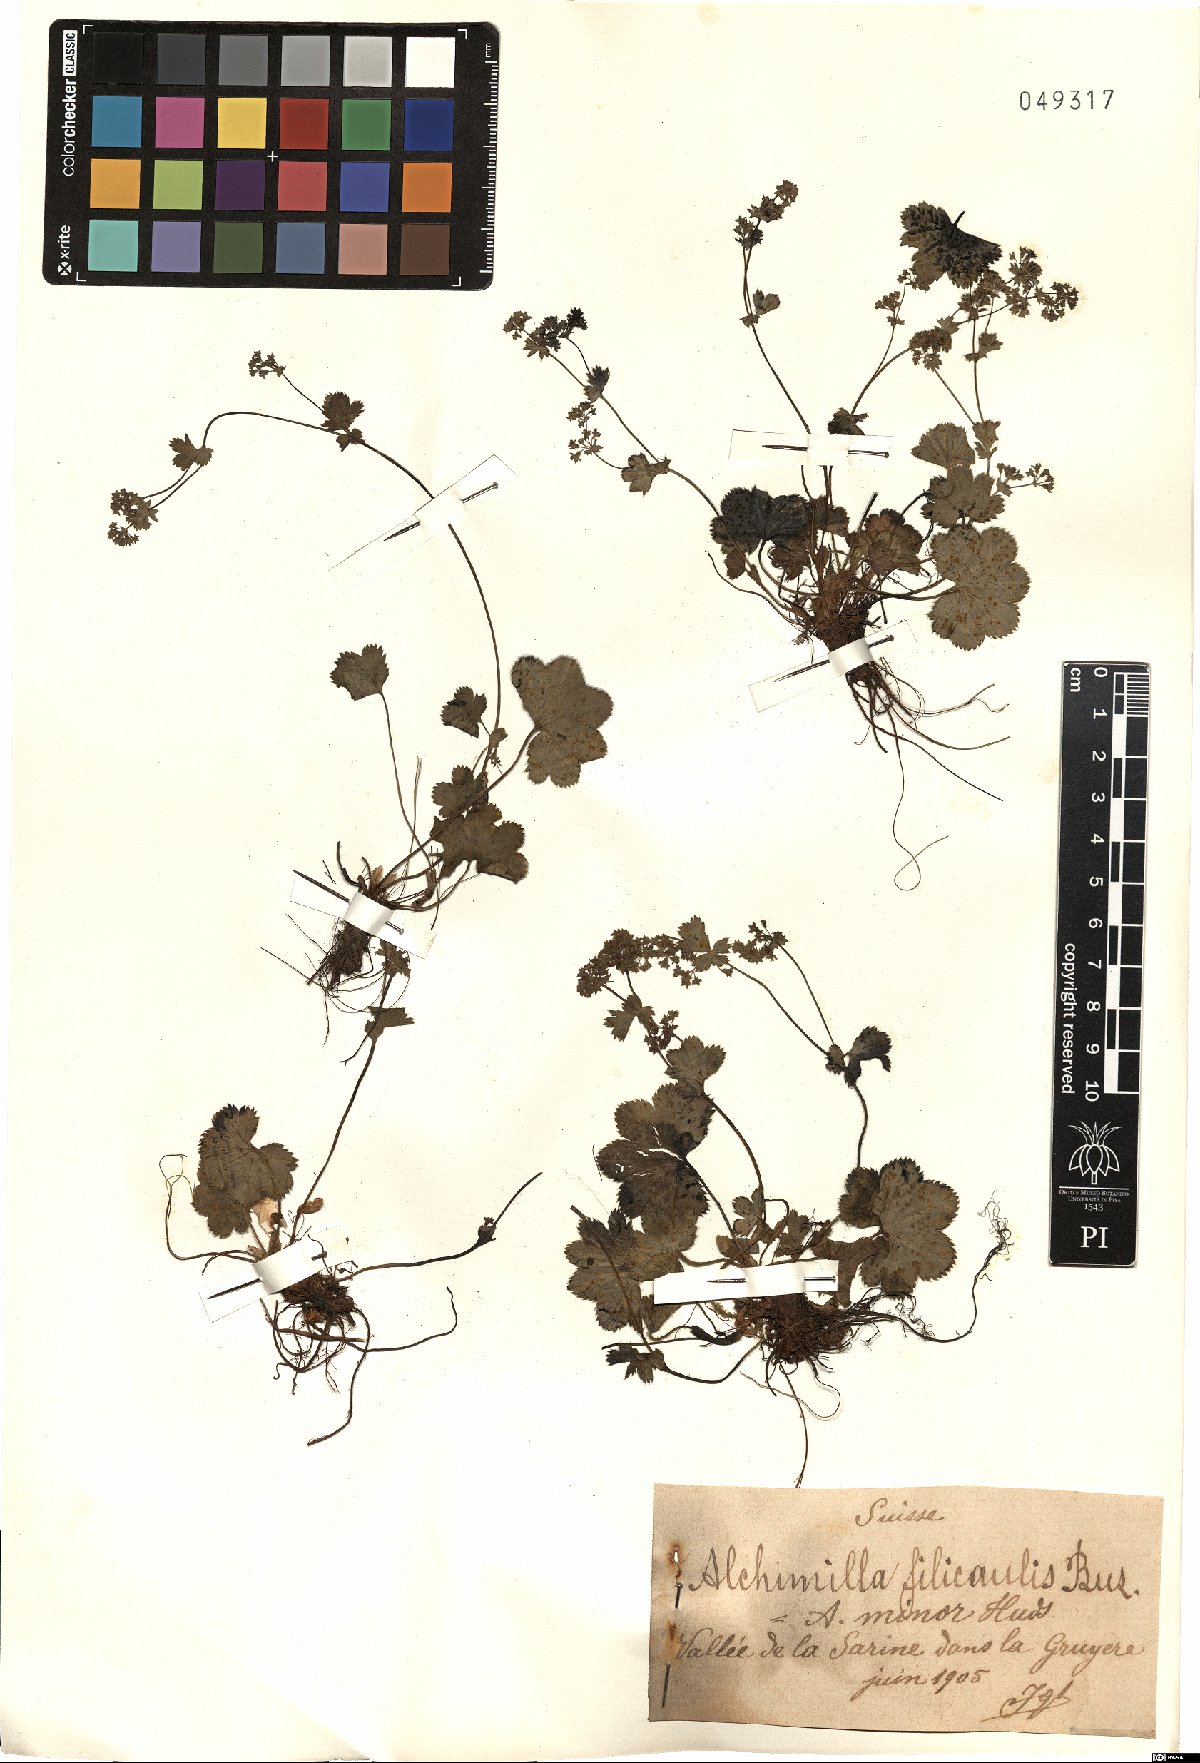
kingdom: Plantae
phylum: Tracheophyta
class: Magnoliopsida
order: Rosales
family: Rosaceae
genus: Alchemilla
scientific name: Alchemilla filicaulis
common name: Hairy lady's-mantle
